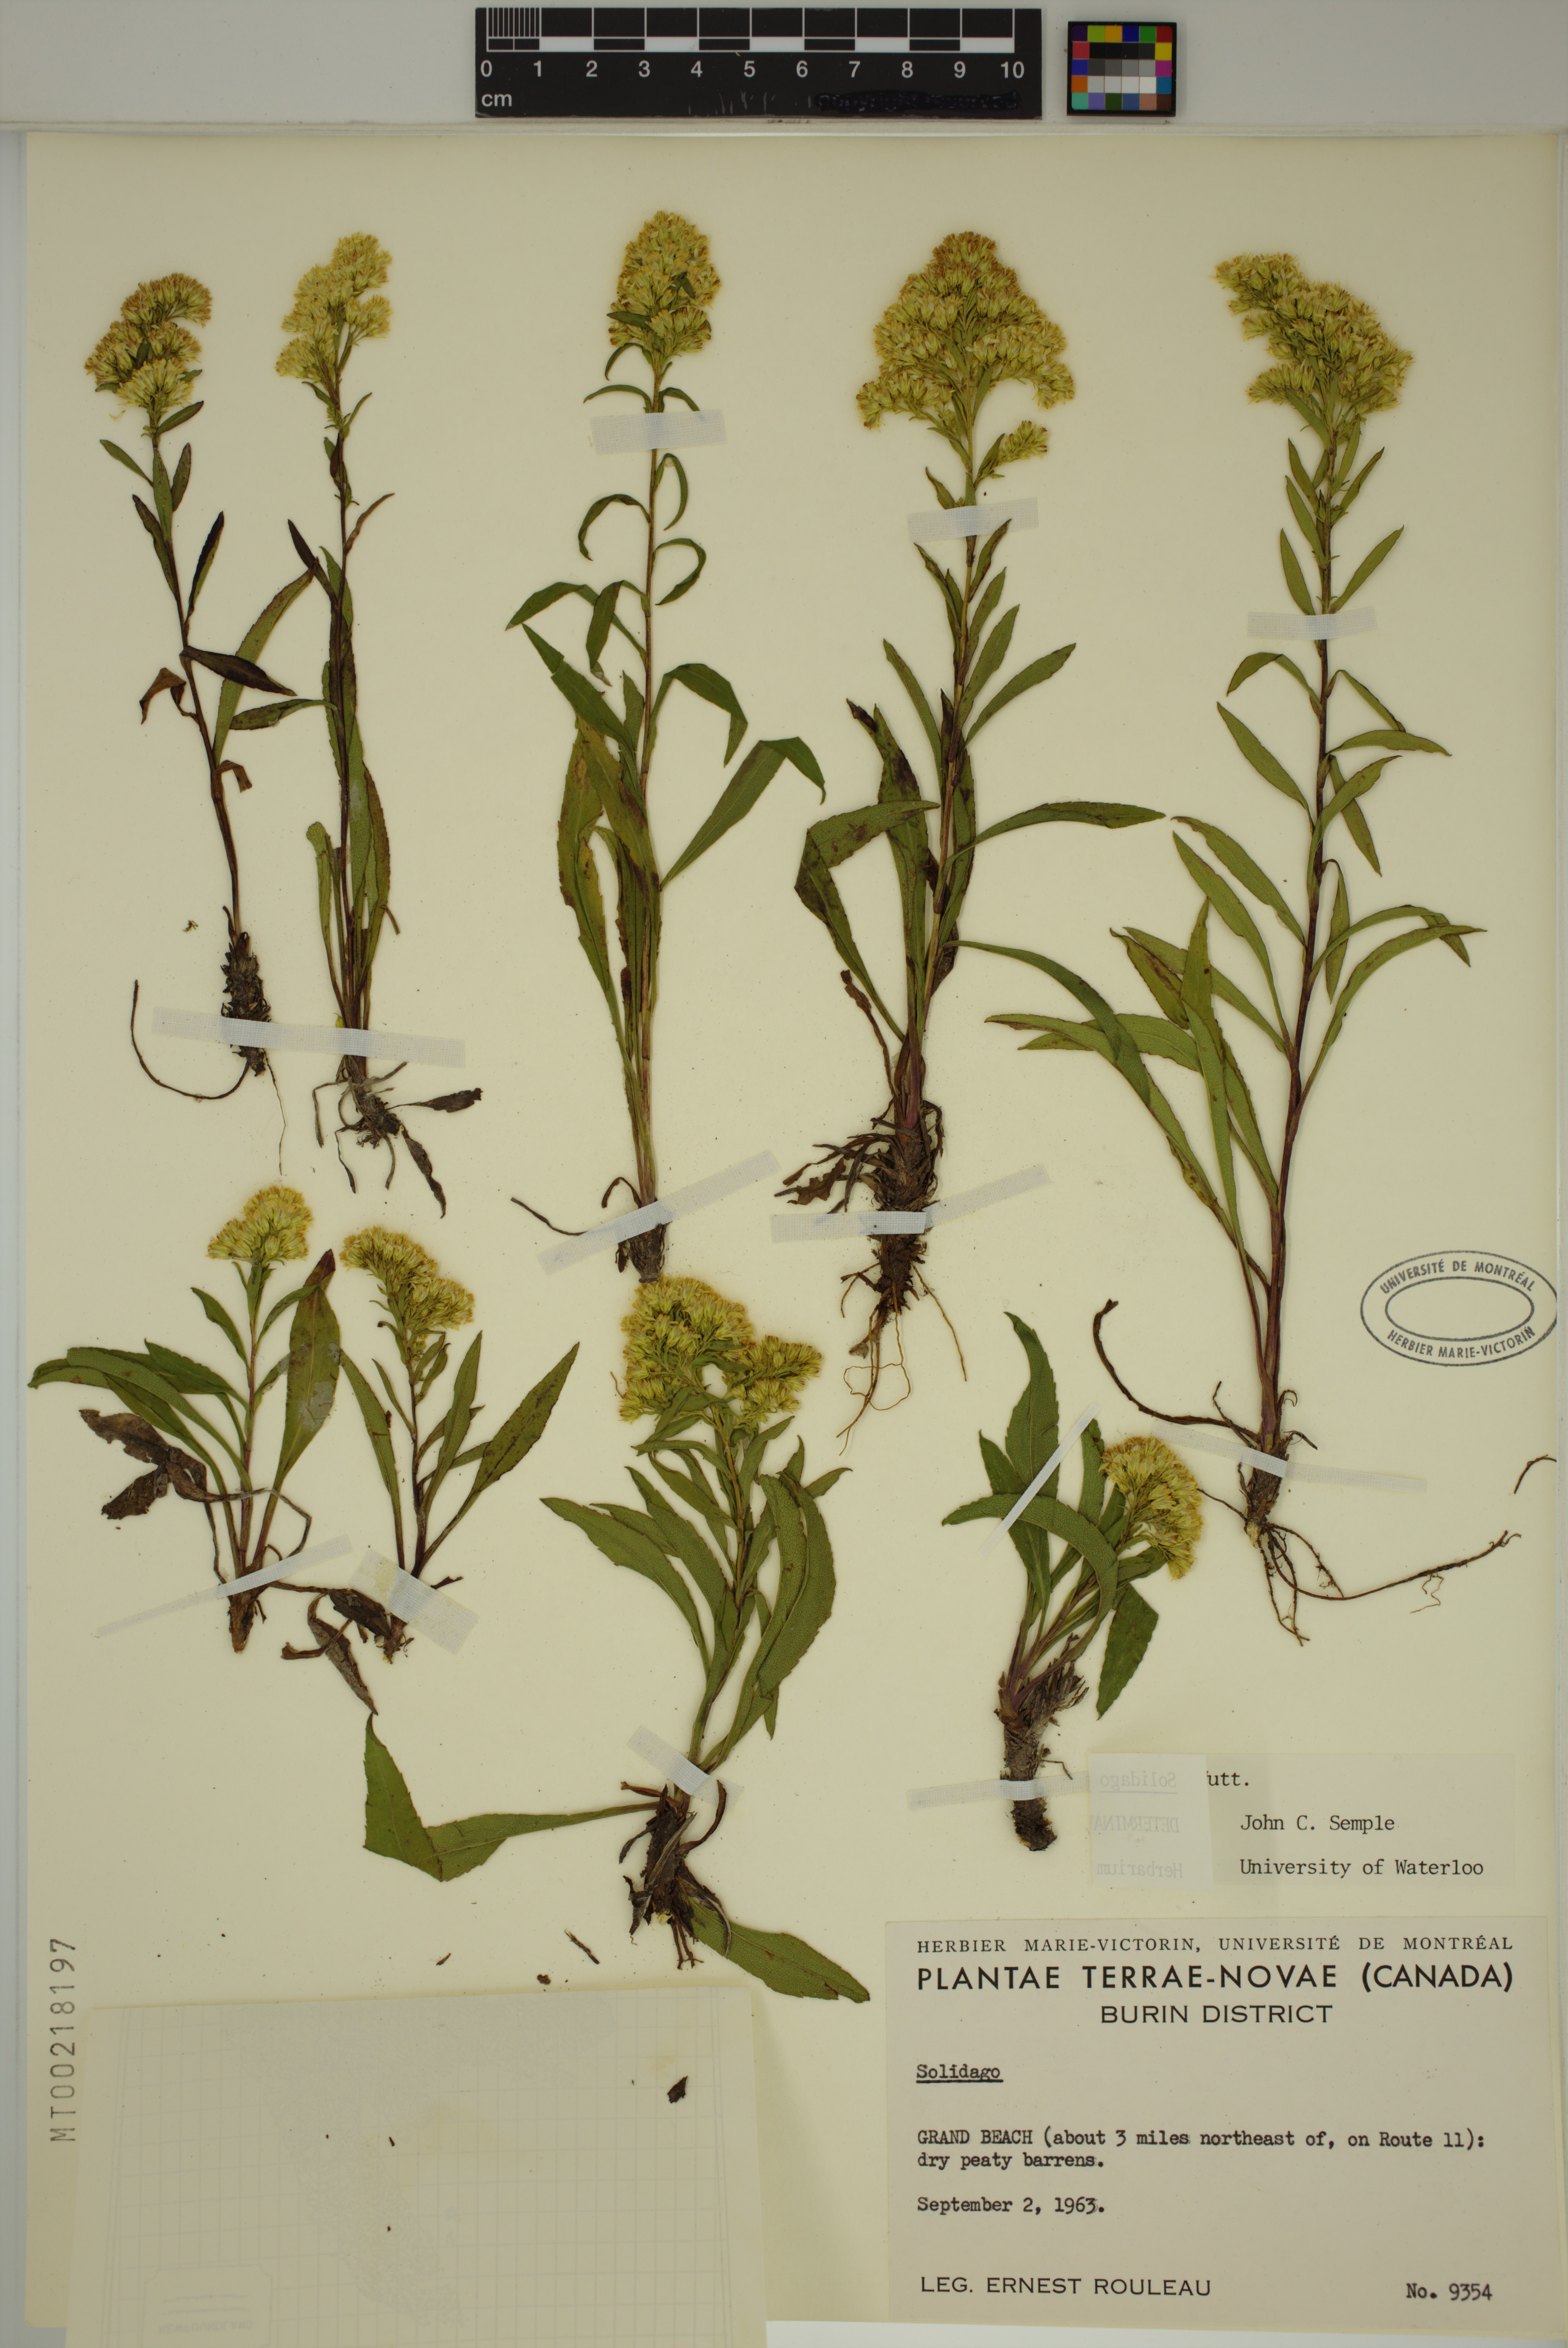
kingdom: Plantae
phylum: Tracheophyta
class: Magnoliopsida
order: Asterales
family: Asteraceae
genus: Solidago
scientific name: Solidago uliginosa
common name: Bog goldenrod
